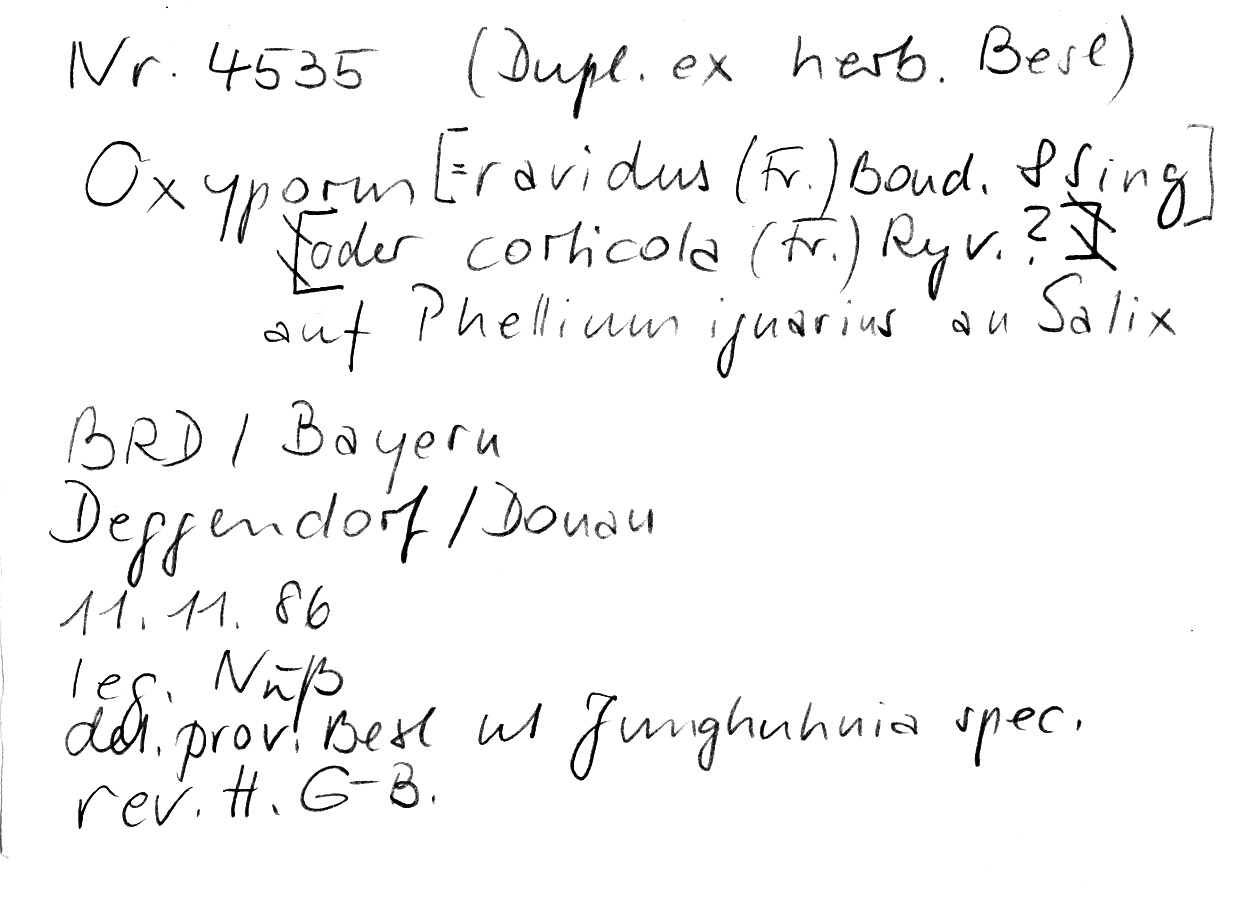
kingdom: Fungi
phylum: Basidiomycota
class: Agaricomycetes
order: Hymenochaetales
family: Oxyporaceae
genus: Oxyporus
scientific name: Oxyporus corticola
